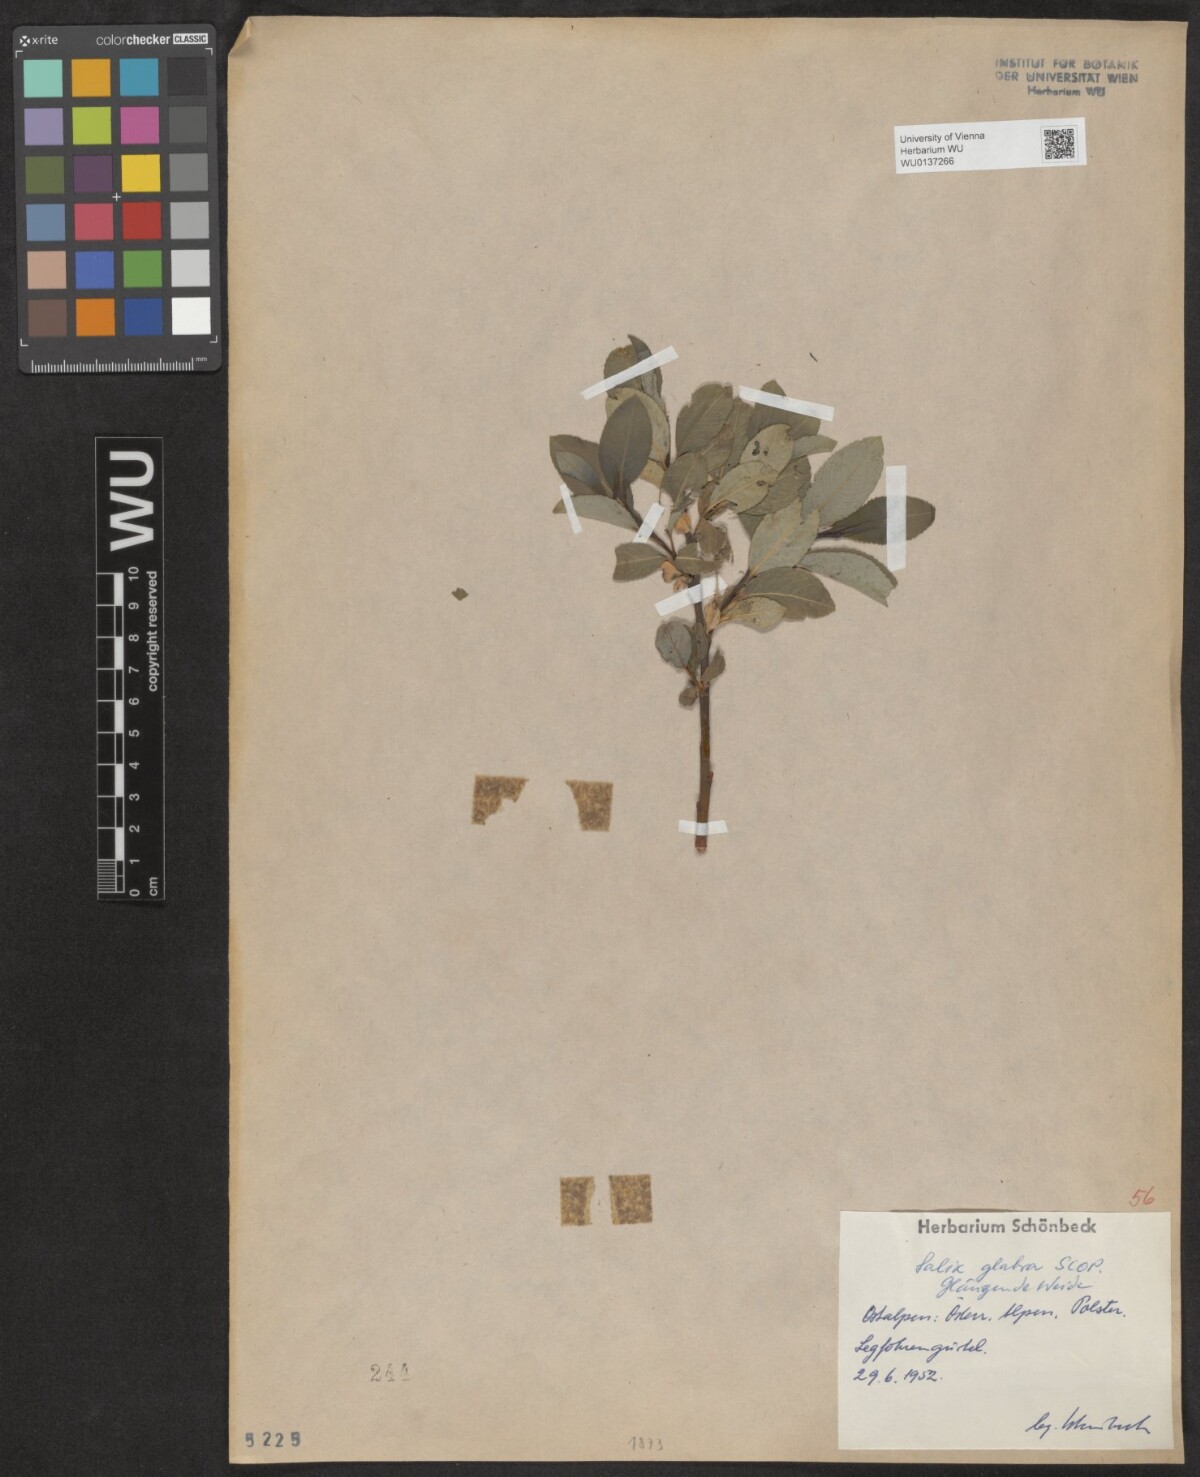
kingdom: Plantae
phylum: Tracheophyta
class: Magnoliopsida
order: Malpighiales
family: Salicaceae
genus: Salix
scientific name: Salix glabra
